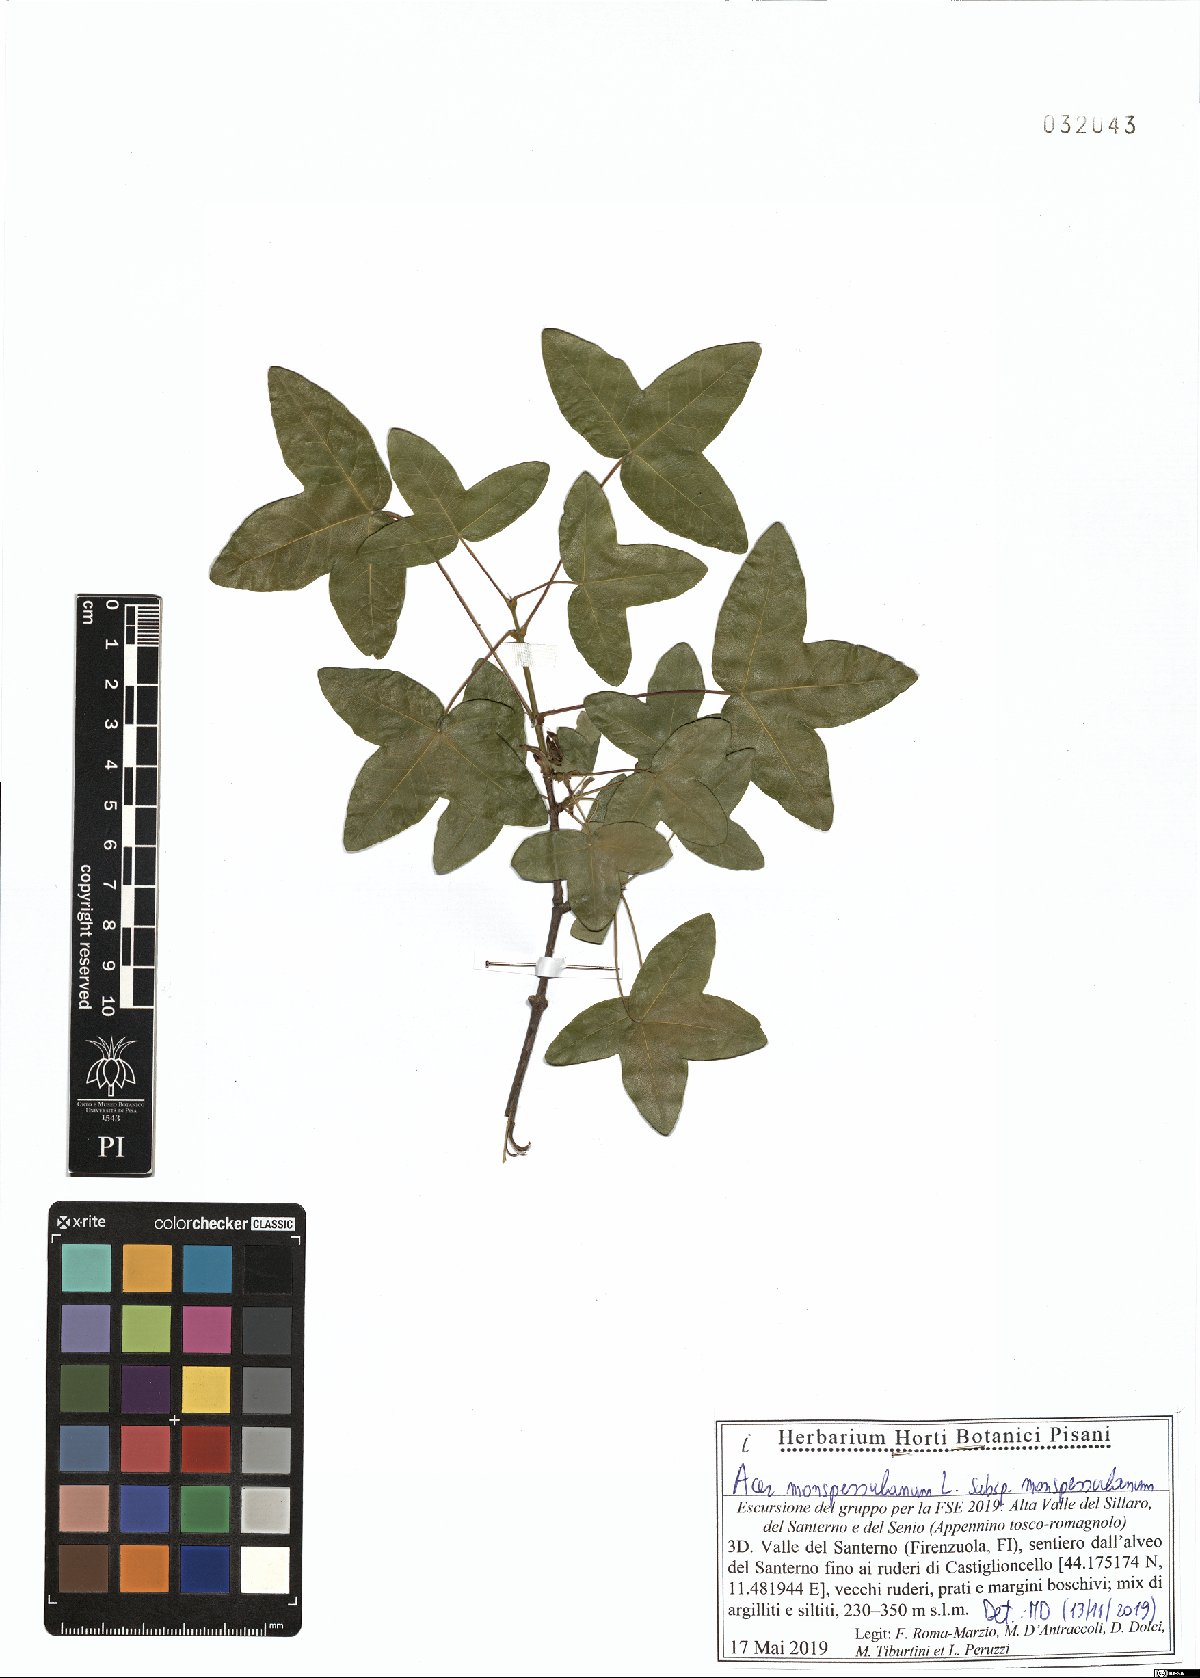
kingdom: Plantae
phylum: Tracheophyta
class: Magnoliopsida
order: Sapindales
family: Sapindaceae
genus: Acer
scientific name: Acer monspessulanum
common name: Montpellier maple
